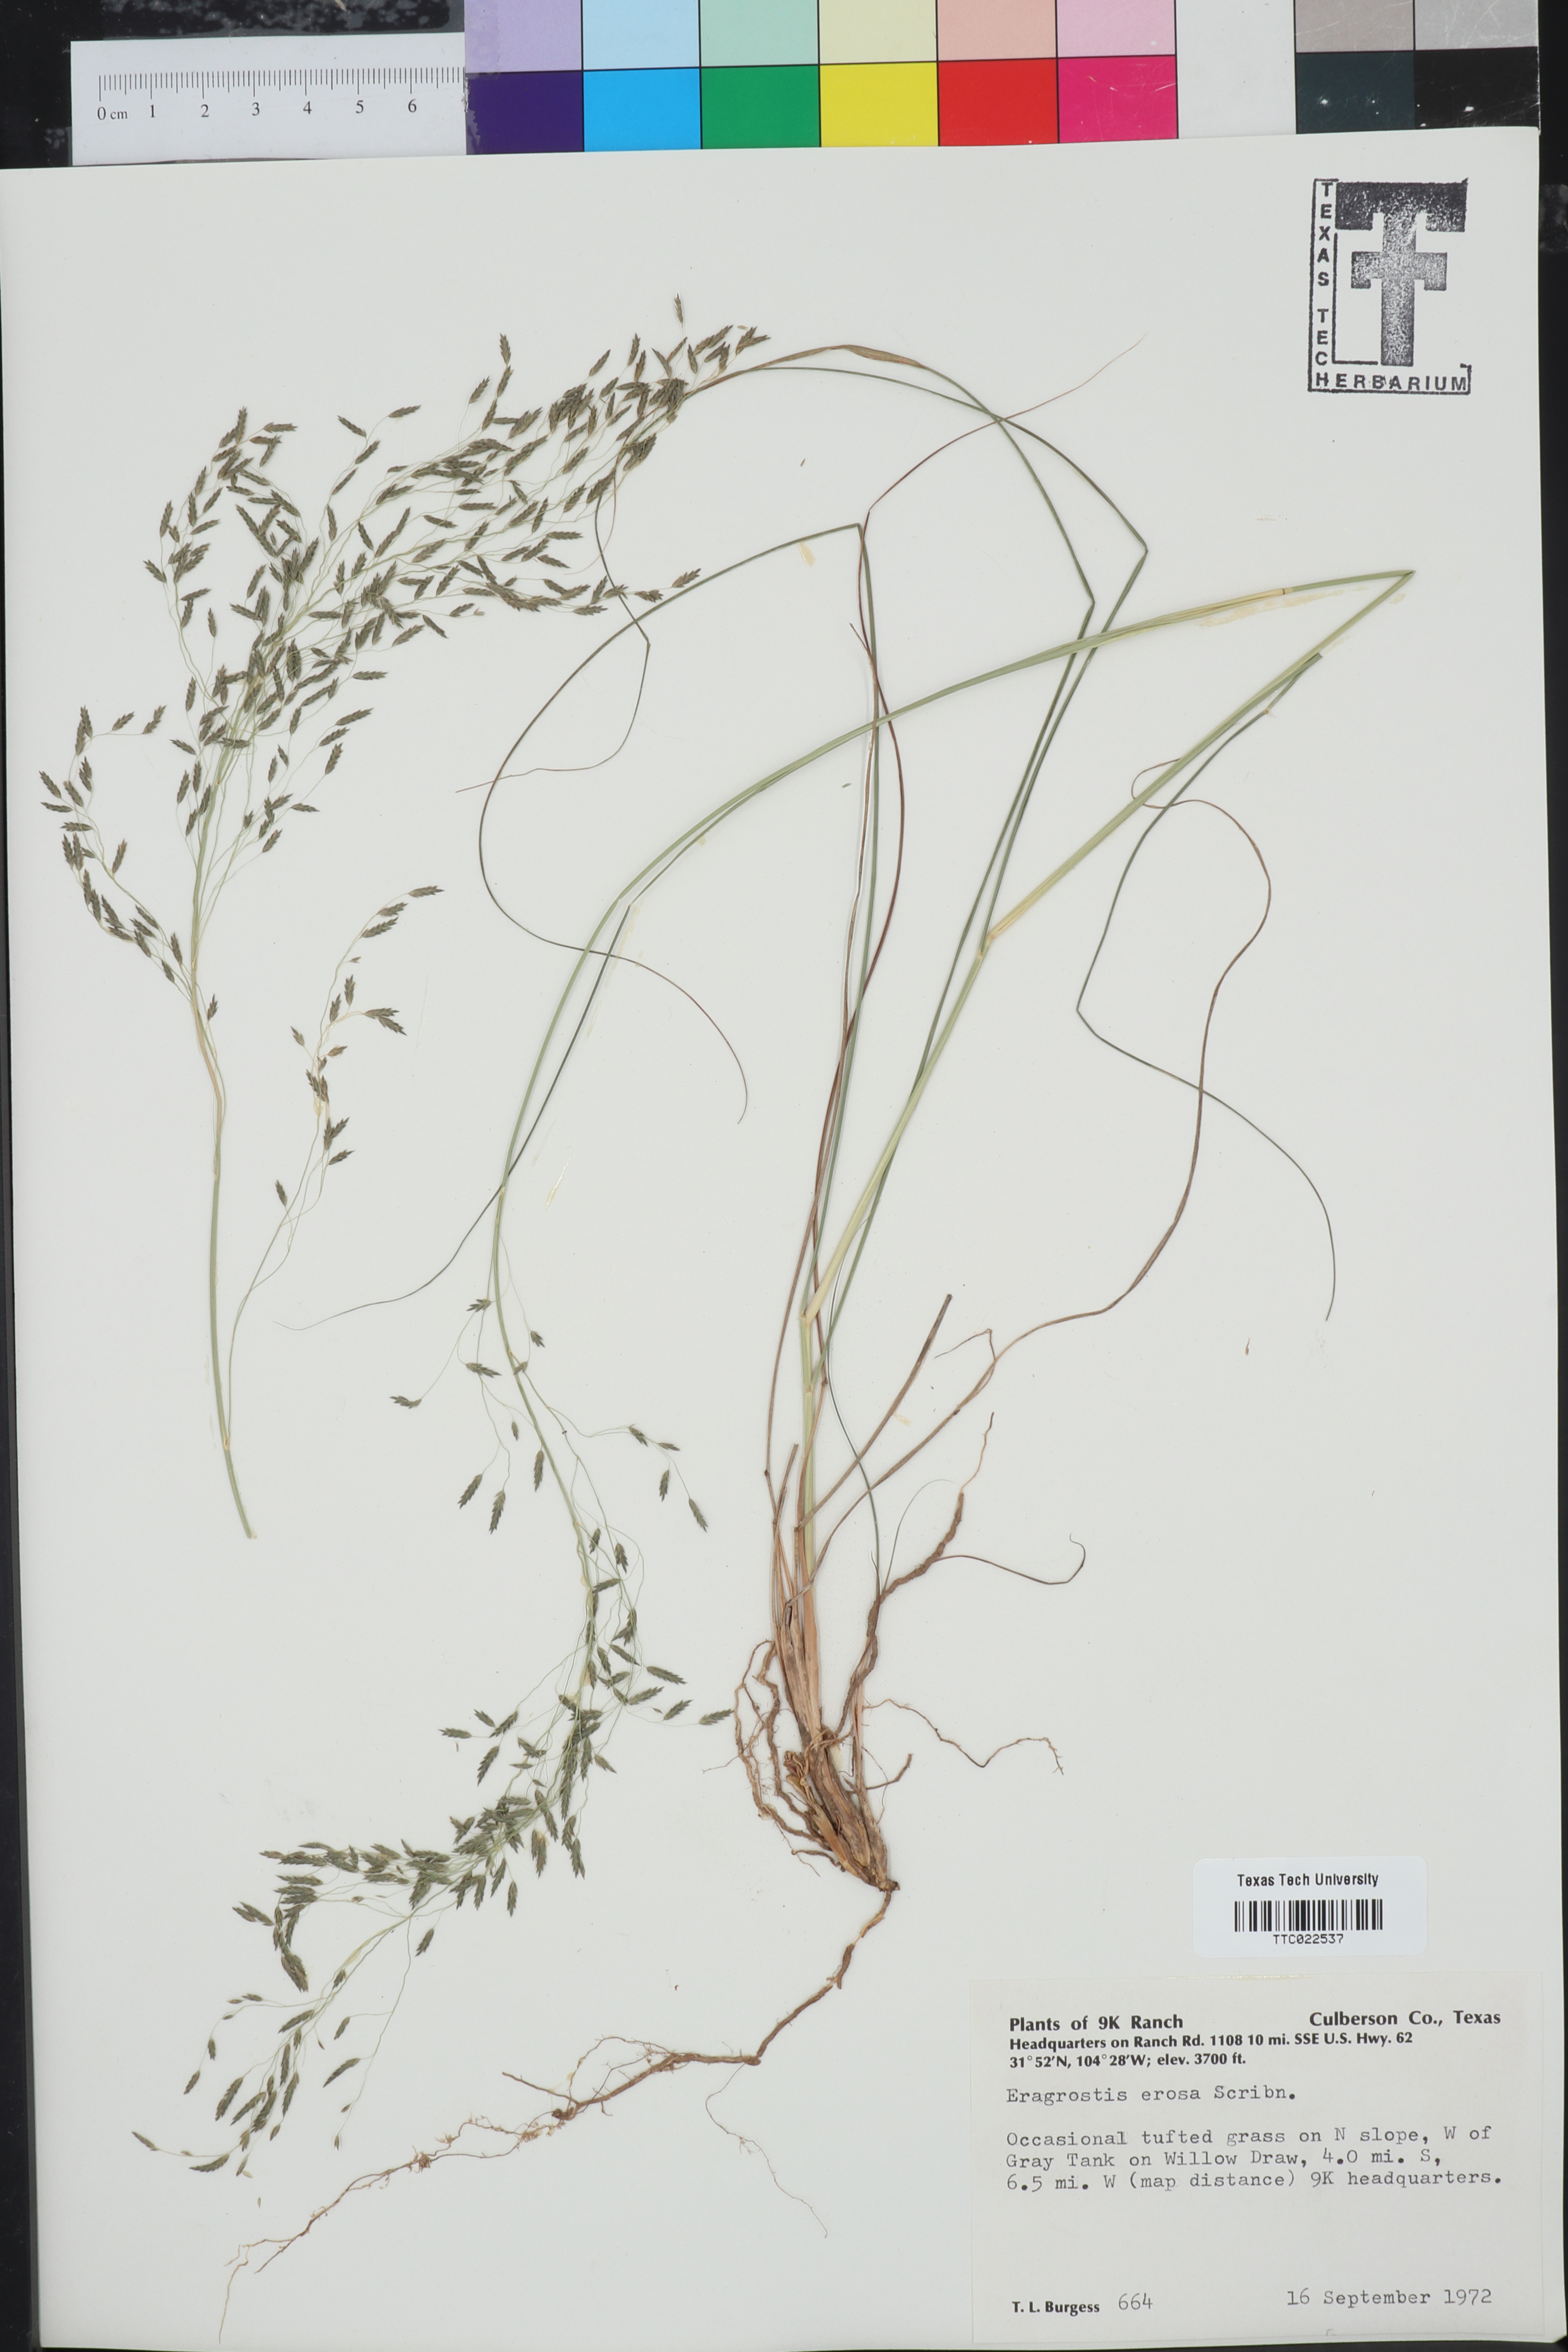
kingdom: Plantae
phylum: Tracheophyta
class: Liliopsida
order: Poales
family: Poaceae
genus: Eragrostis
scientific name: Eragrostis erosa
